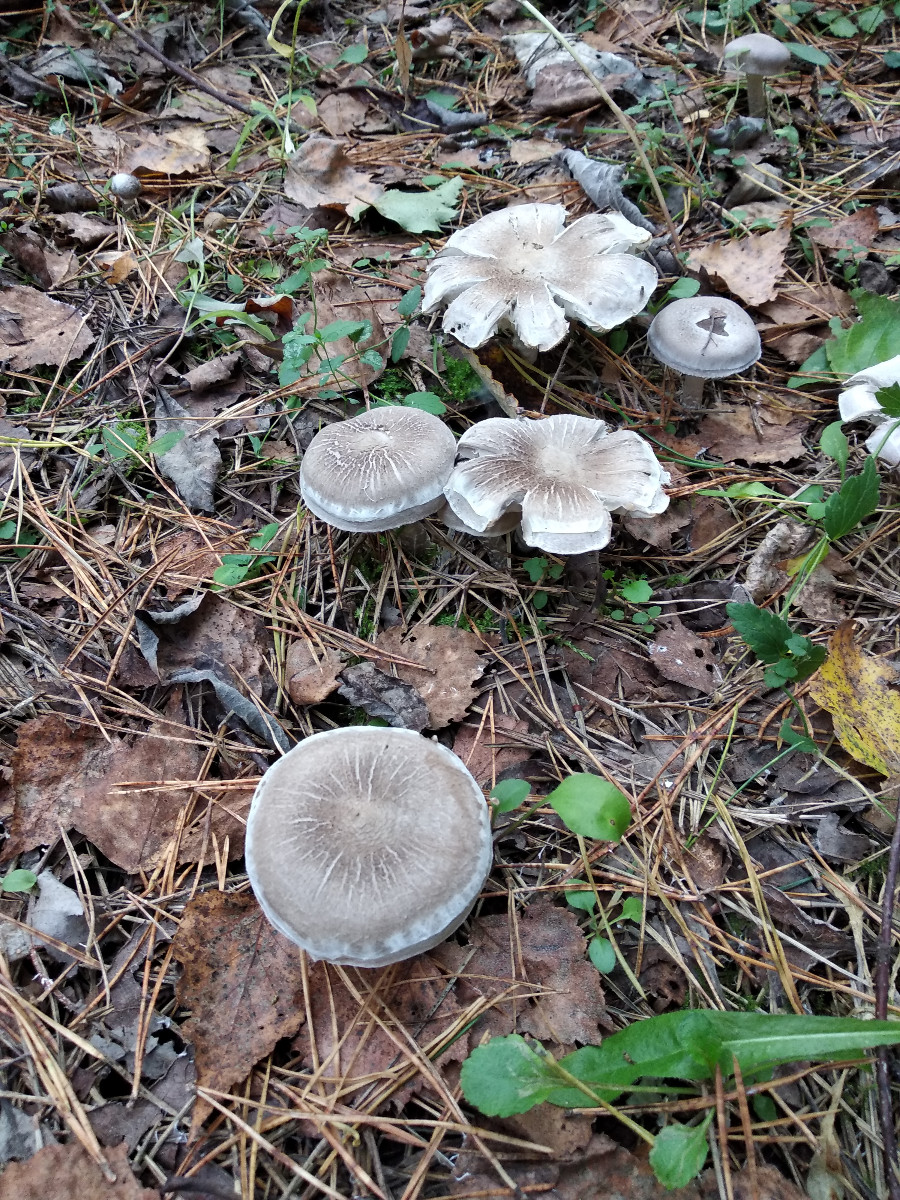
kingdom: Fungi
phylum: Basidiomycota
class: Agaricomycetes
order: Agaricales
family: Tricholomataceae
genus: Tricholoma
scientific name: Tricholoma cingulatum
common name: ring-ridderhat
